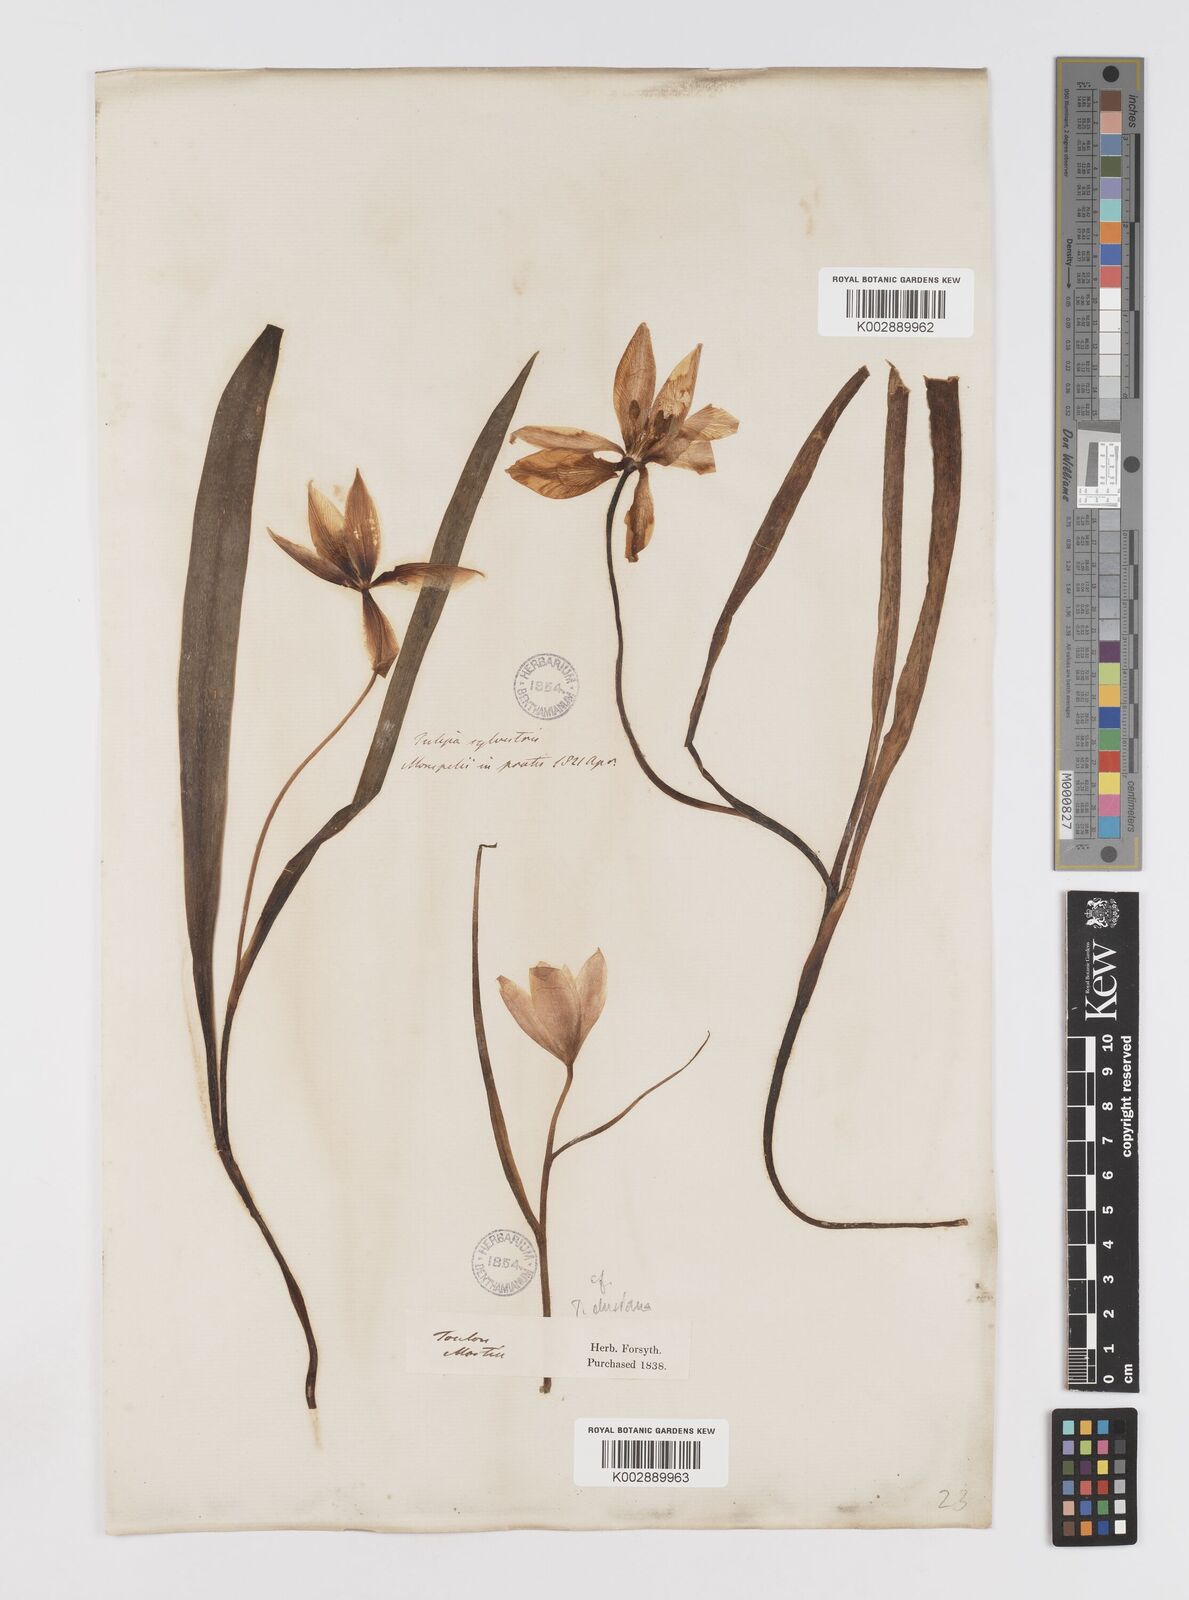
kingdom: Plantae
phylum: Tracheophyta
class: Liliopsida
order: Liliales
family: Liliaceae
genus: Tulipa
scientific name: Tulipa sylvestris
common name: Wild tulip
